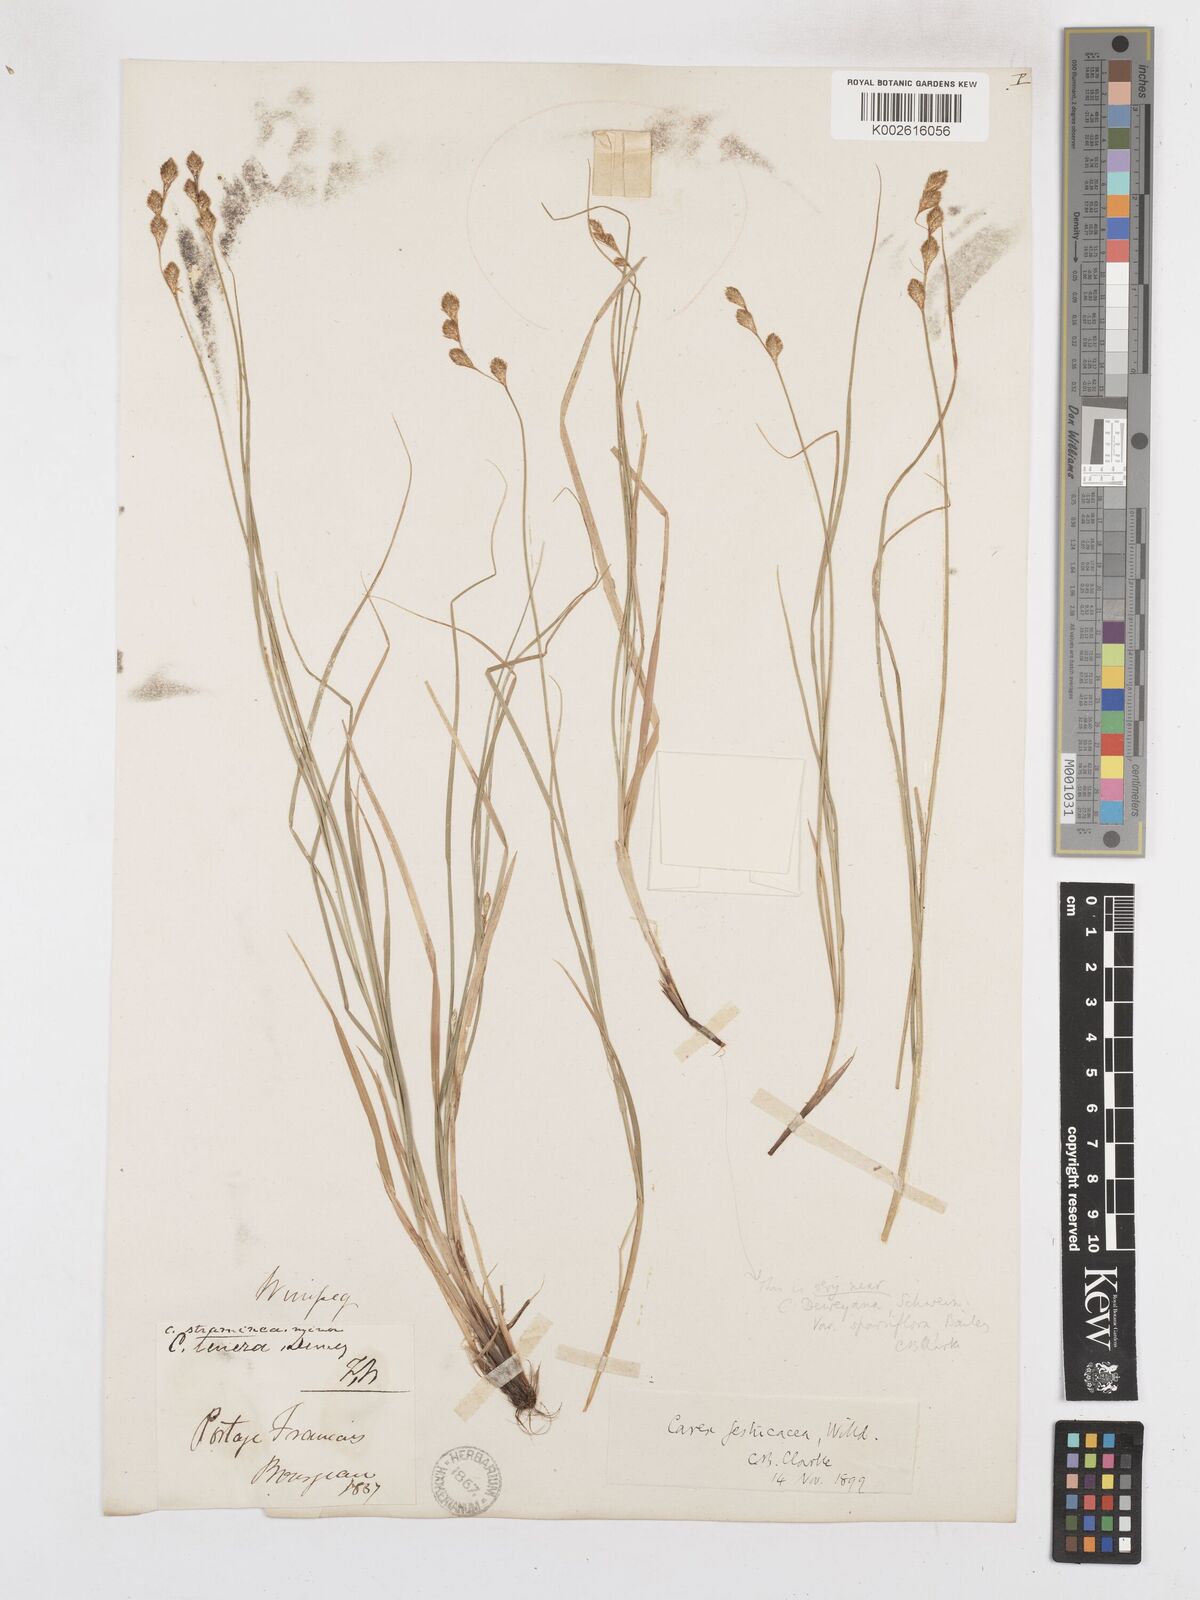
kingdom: Plantae
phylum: Tracheophyta
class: Liliopsida
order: Poales
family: Cyperaceae
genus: Carex
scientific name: Carex festucacea
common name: Fescue oval sedge
